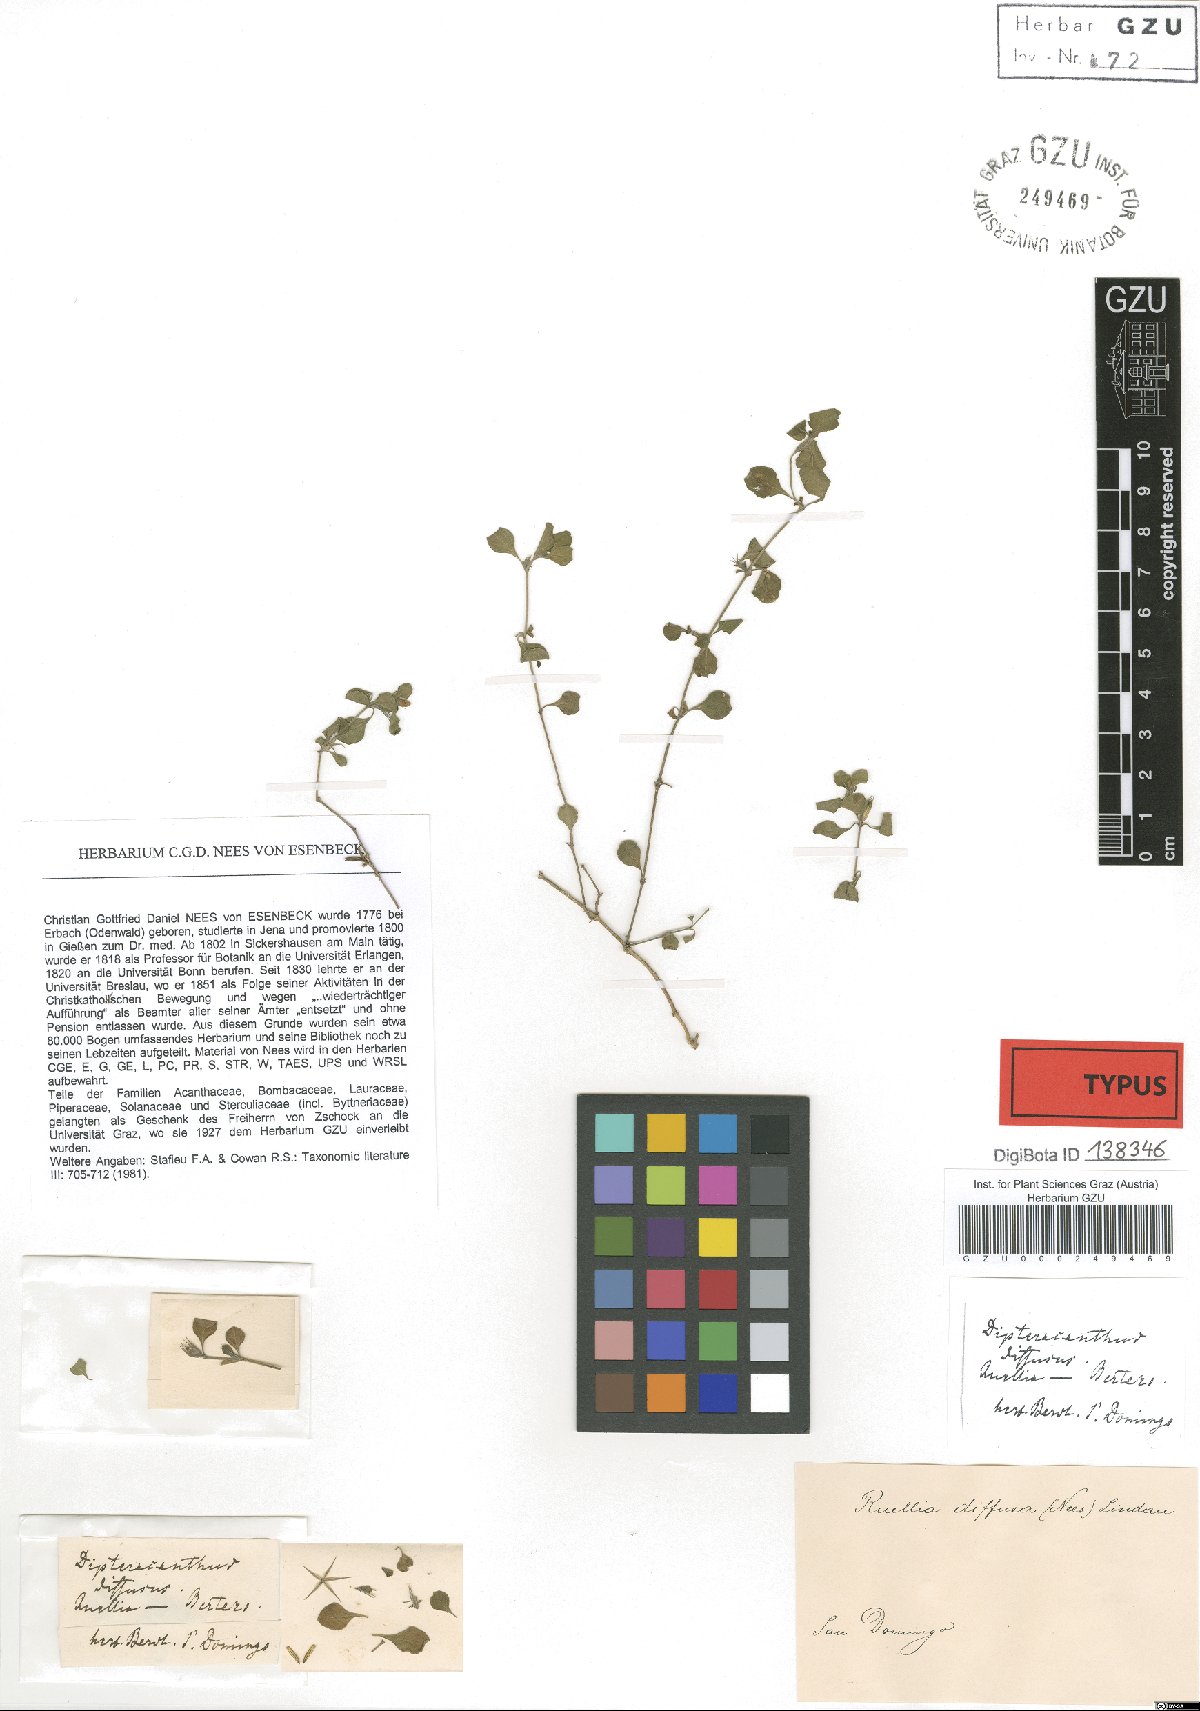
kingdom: Plantae
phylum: Tracheophyta
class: Magnoliopsida
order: Lamiales
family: Acanthaceae
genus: Dyschoriste
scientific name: Dyschoriste diffusa
